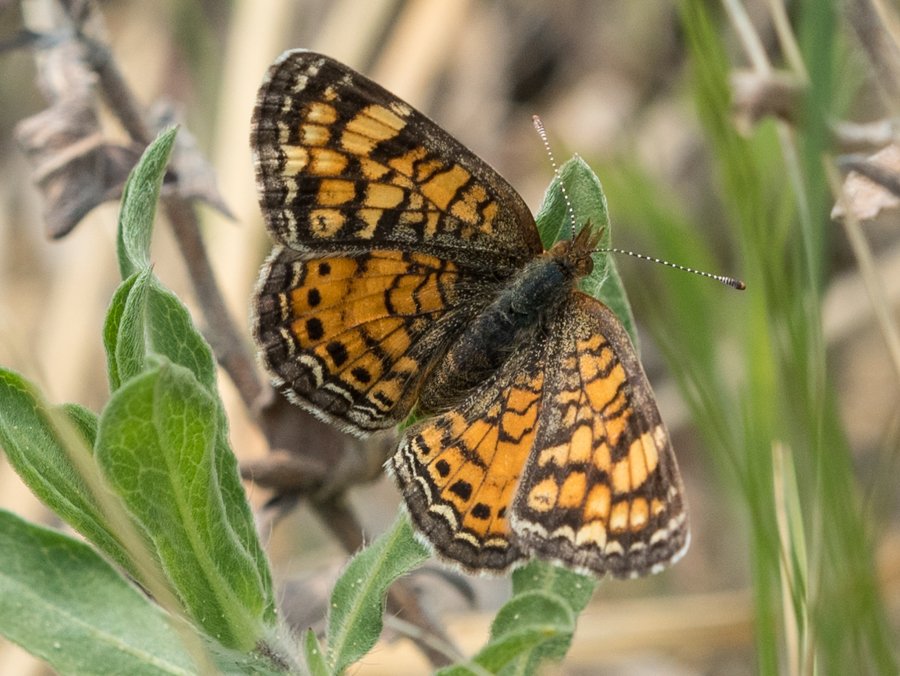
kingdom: Animalia
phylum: Arthropoda
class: Insecta
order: Lepidoptera
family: Nymphalidae
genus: Phyciodes
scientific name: Phyciodes tharos
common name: Pearl Crescent
